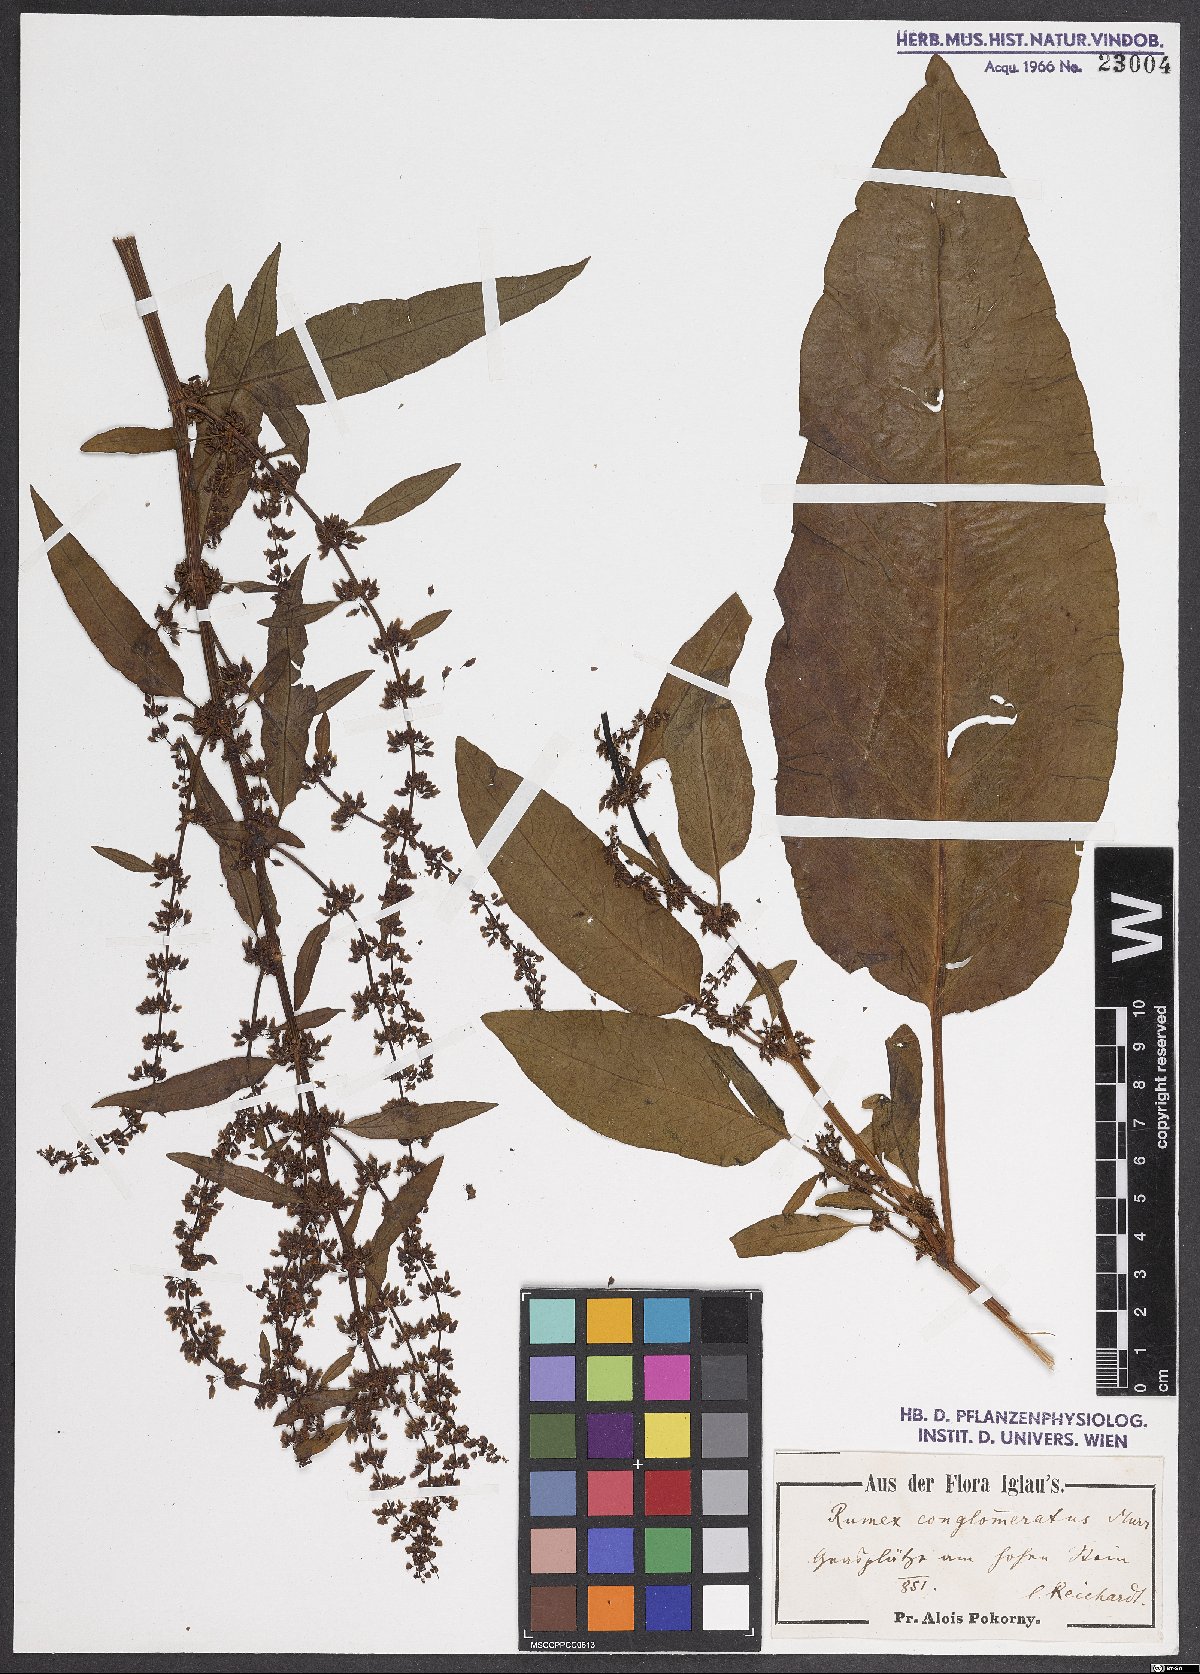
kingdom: Plantae
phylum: Tracheophyta
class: Magnoliopsida
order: Caryophyllales
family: Polygonaceae
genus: Rumex
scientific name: Rumex conglomeratus
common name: Clustered dock
